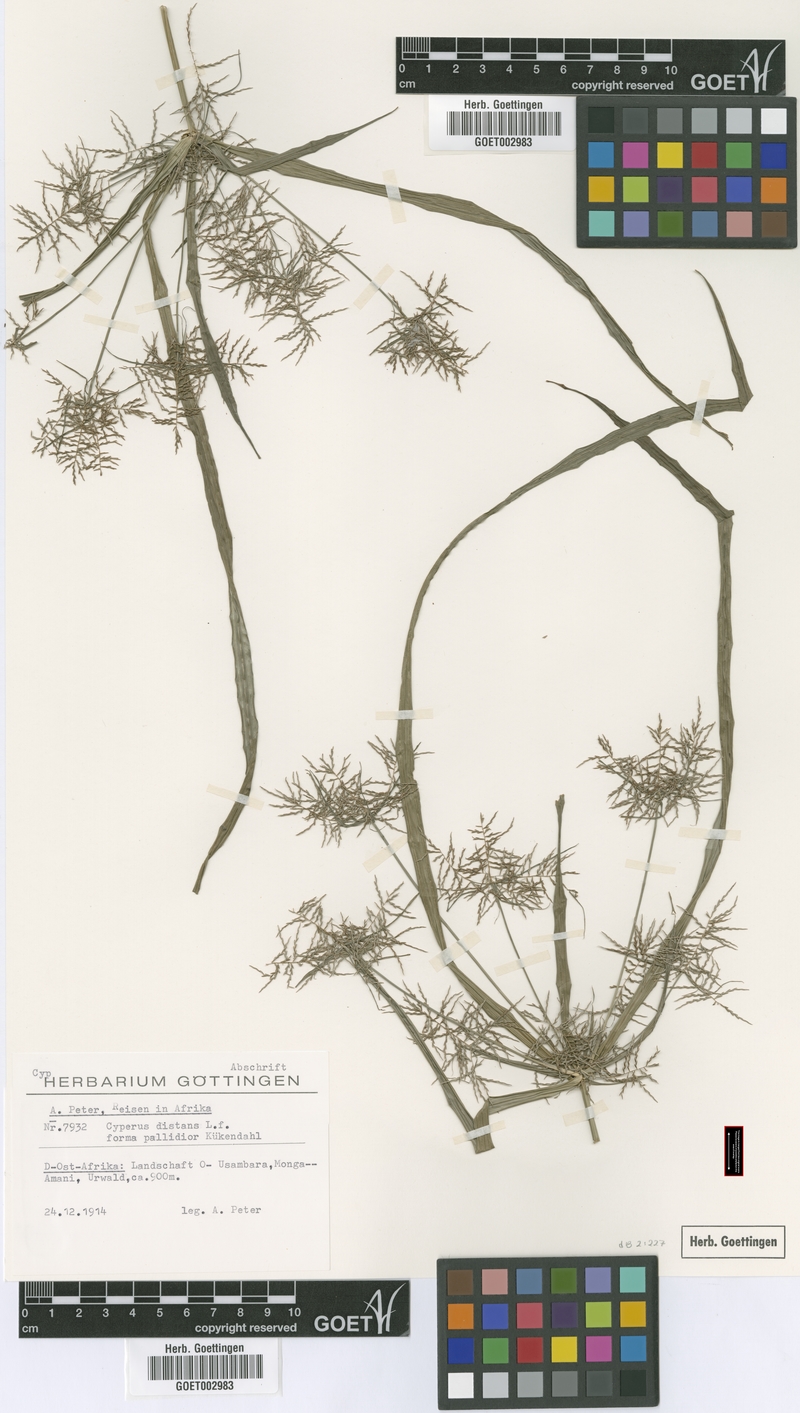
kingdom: Plantae
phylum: Tracheophyta
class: Liliopsida
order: Poales
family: Cyperaceae
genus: Cyperus
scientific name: Cyperus distans
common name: Slender cyperus
